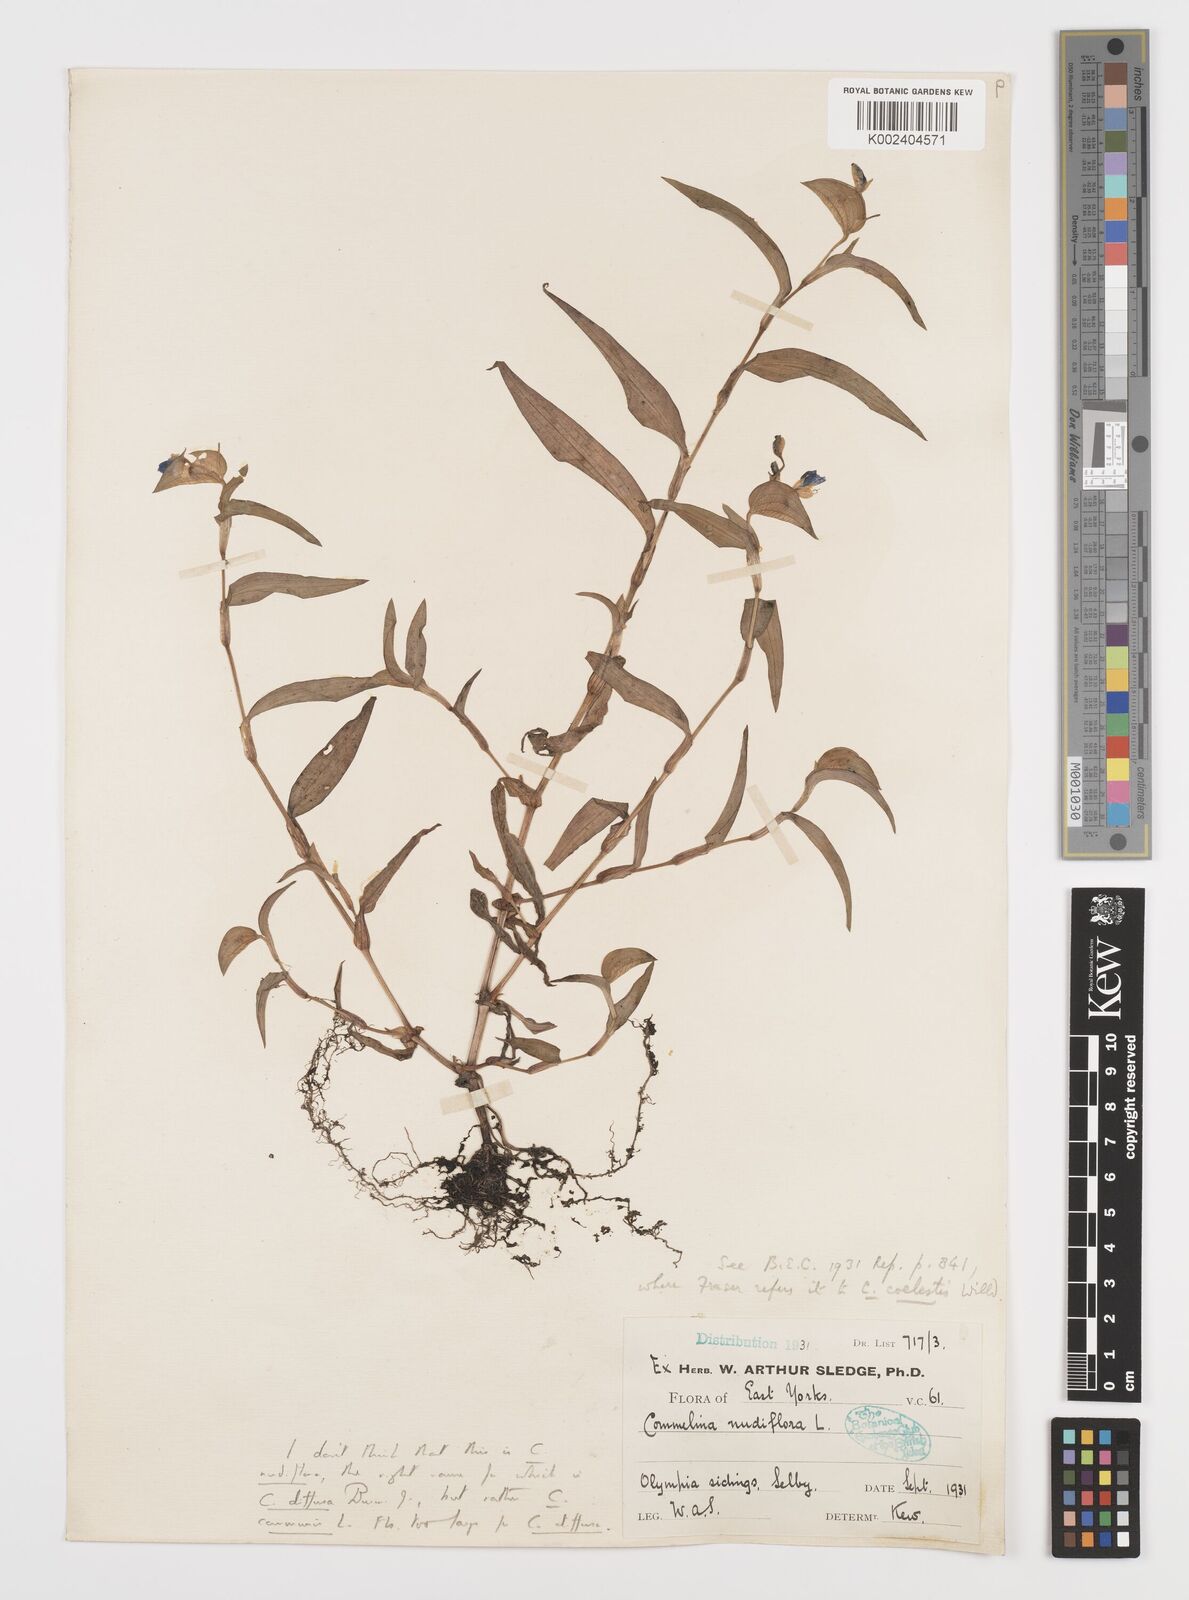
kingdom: Plantae
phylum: Tracheophyta
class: Liliopsida
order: Commelinales
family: Commelinaceae
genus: Murdannia
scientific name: Murdannia nudiflora
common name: Nakedstem dewflower
